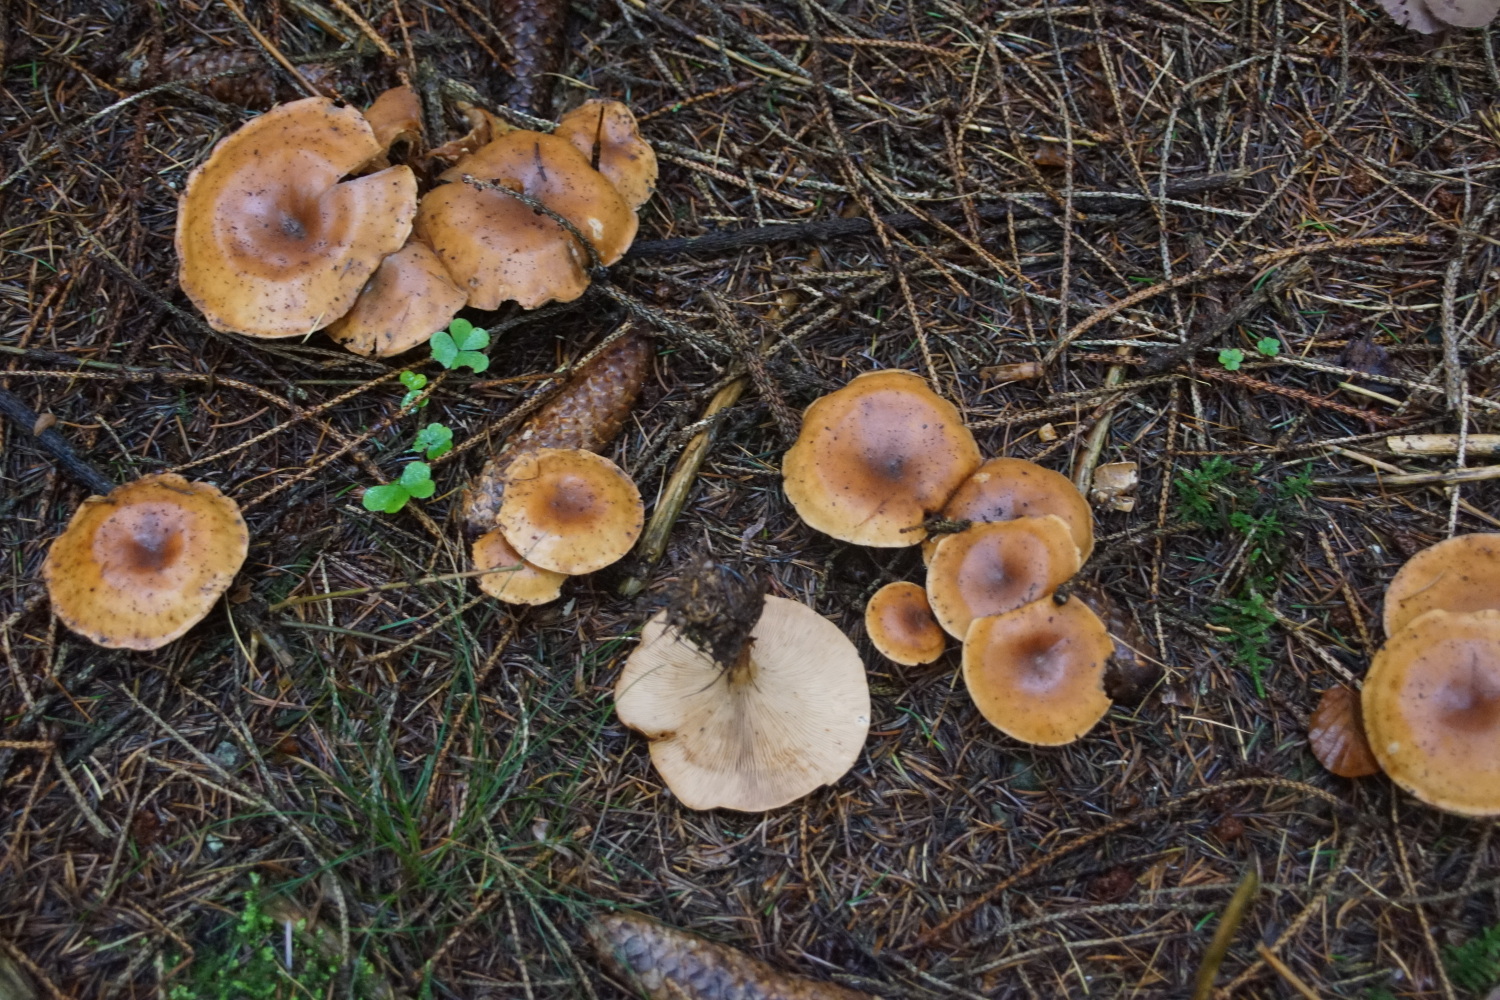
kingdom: Fungi
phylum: Basidiomycota
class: Agaricomycetes
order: Agaricales
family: Tricholomataceae
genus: Paralepista
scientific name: Paralepista flaccida
